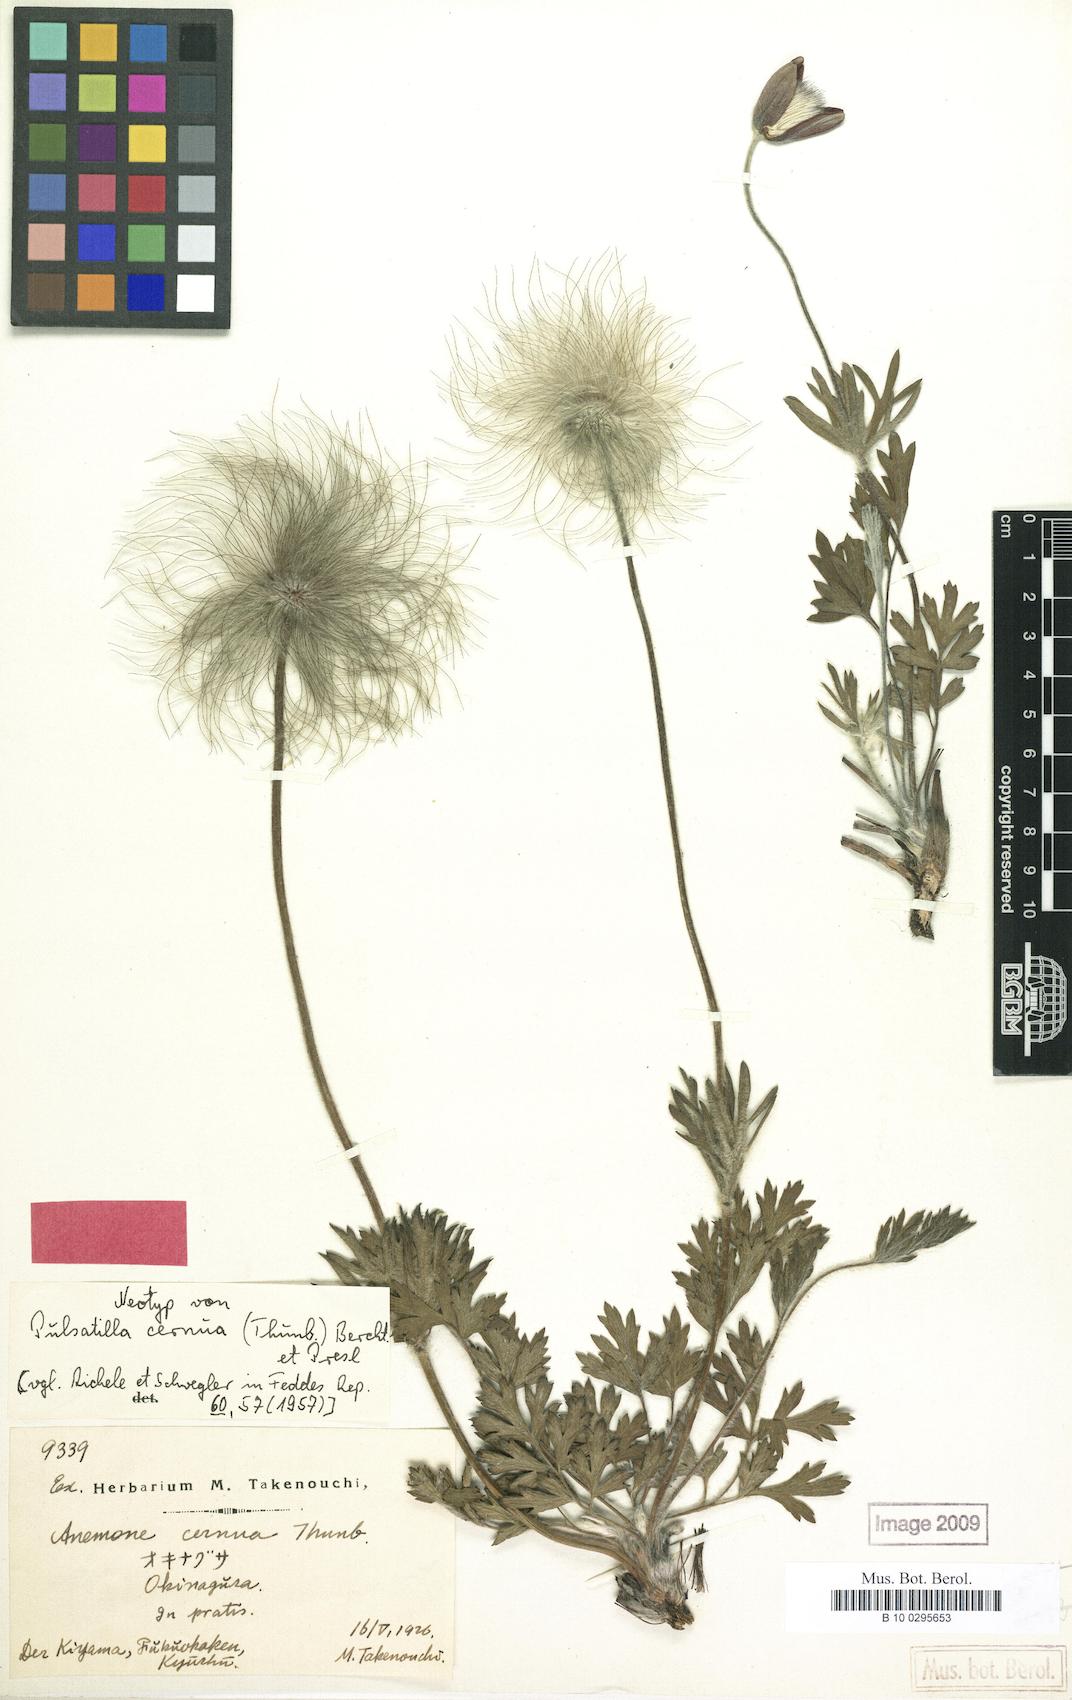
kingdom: Plantae
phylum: Tracheophyta
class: Magnoliopsida
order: Ranunculales
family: Ranunculaceae
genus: Pulsatilla
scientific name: Pulsatilla cernua
